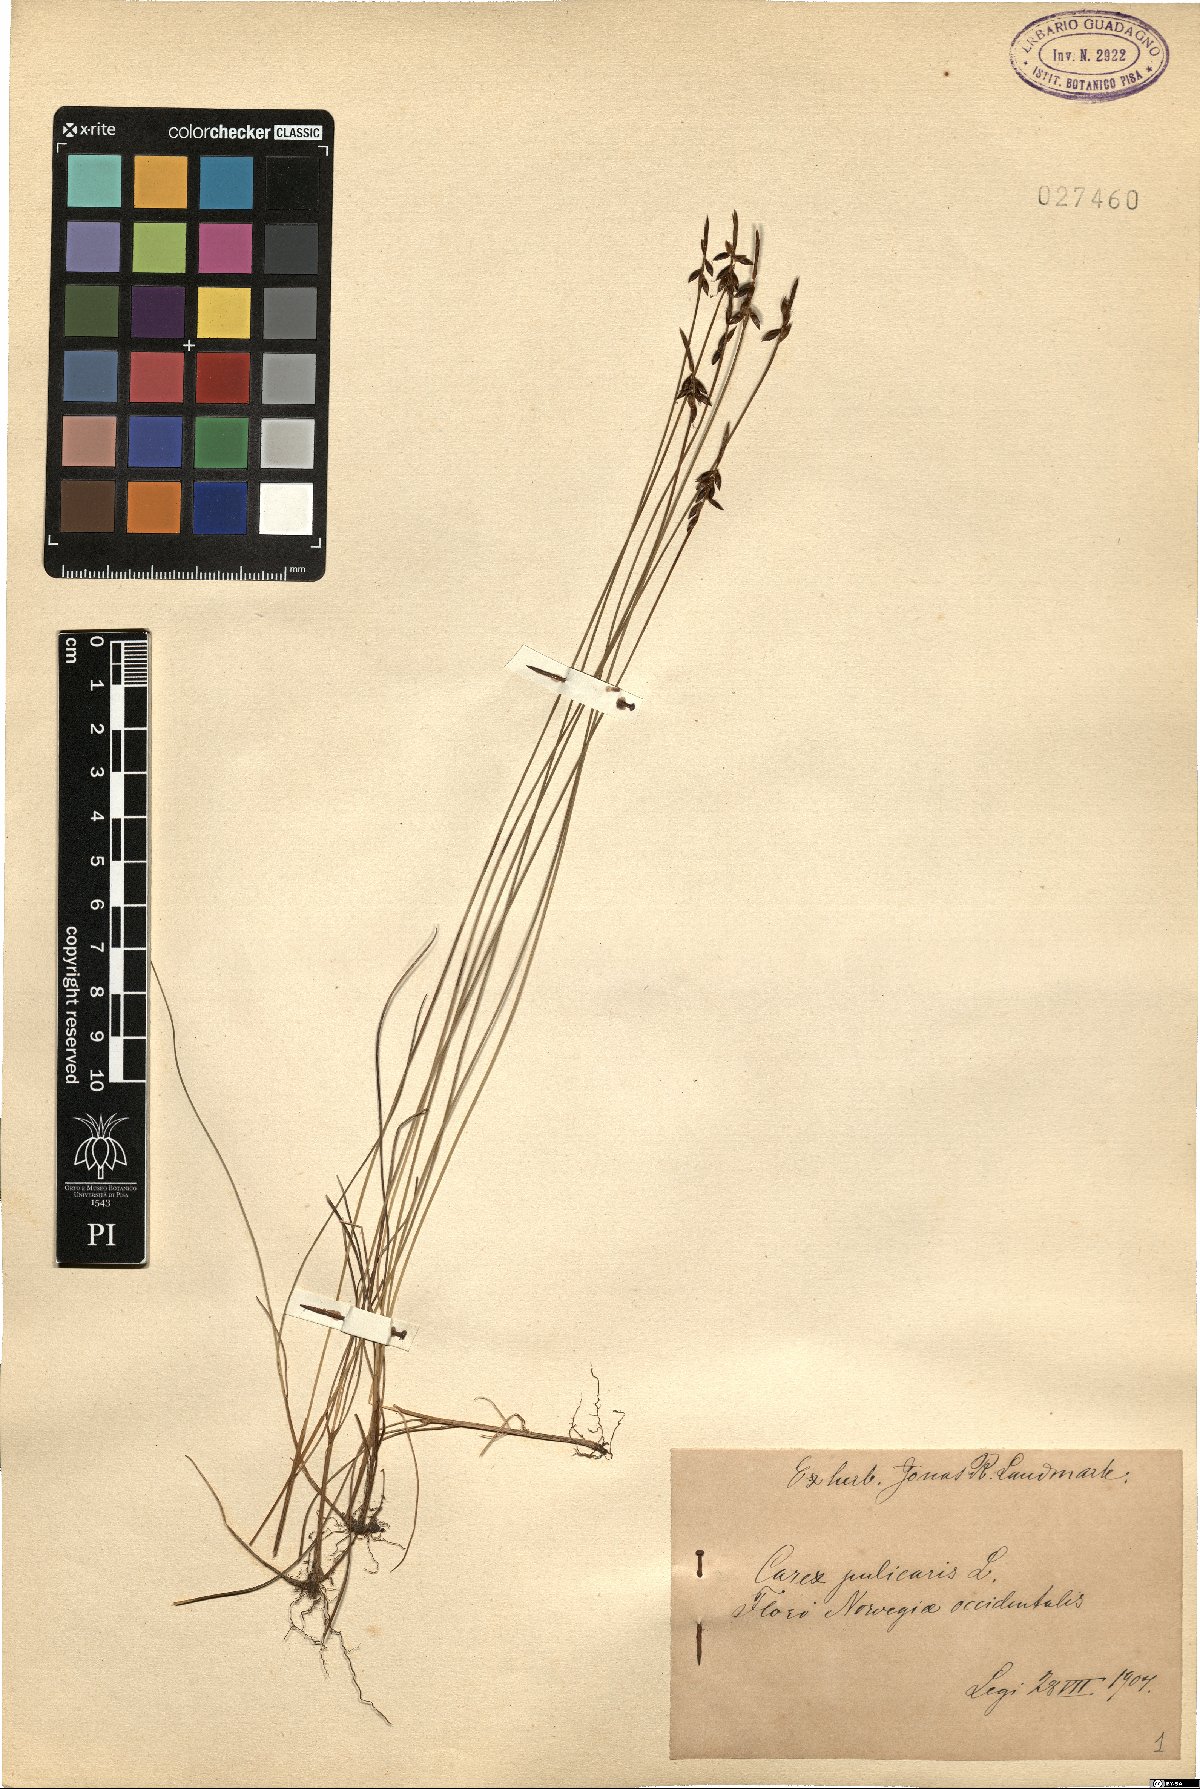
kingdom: Plantae
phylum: Tracheophyta
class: Liliopsida
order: Poales
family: Cyperaceae
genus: Carex
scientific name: Carex pulicaris
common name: Flea sedge
